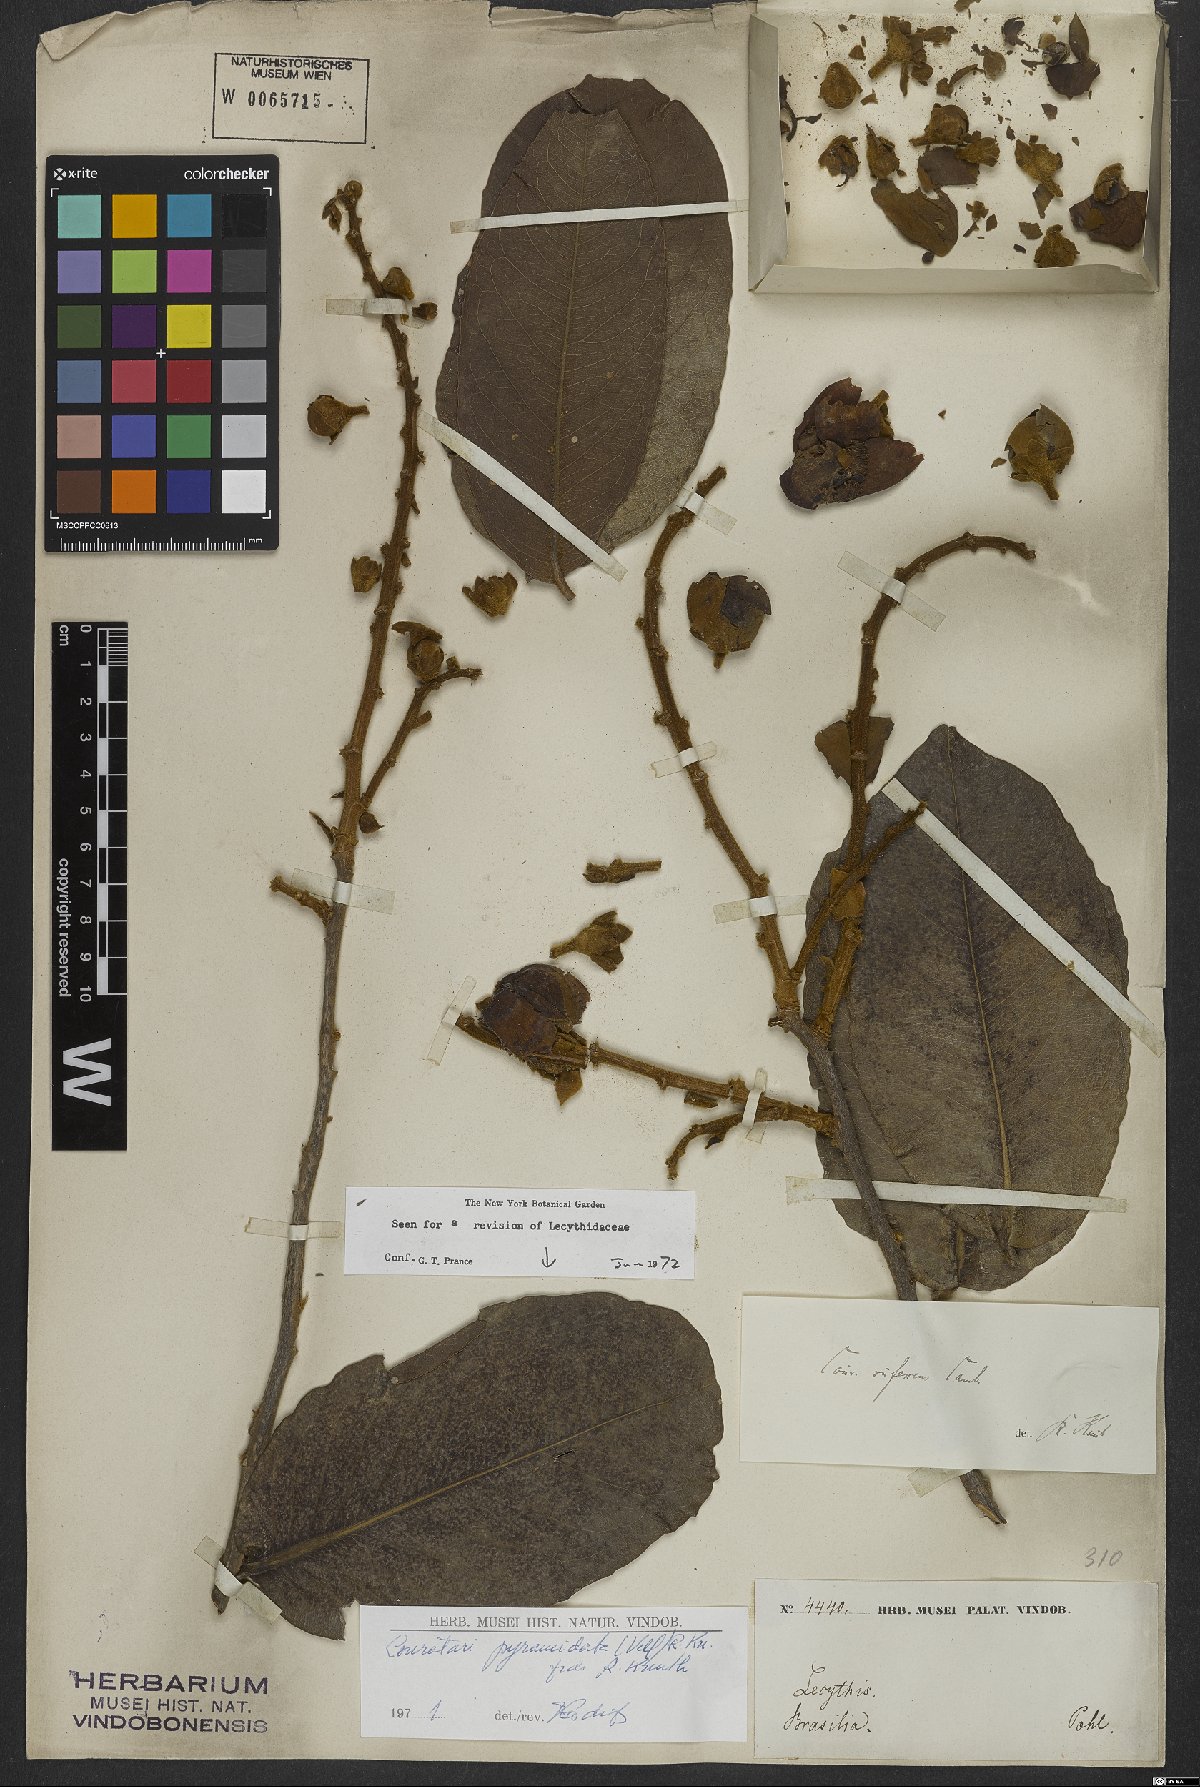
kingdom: Plantae
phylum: Tracheophyta
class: Magnoliopsida
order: Ericales
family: Lecythidaceae
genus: Couratari
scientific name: Couratari pyramidata
